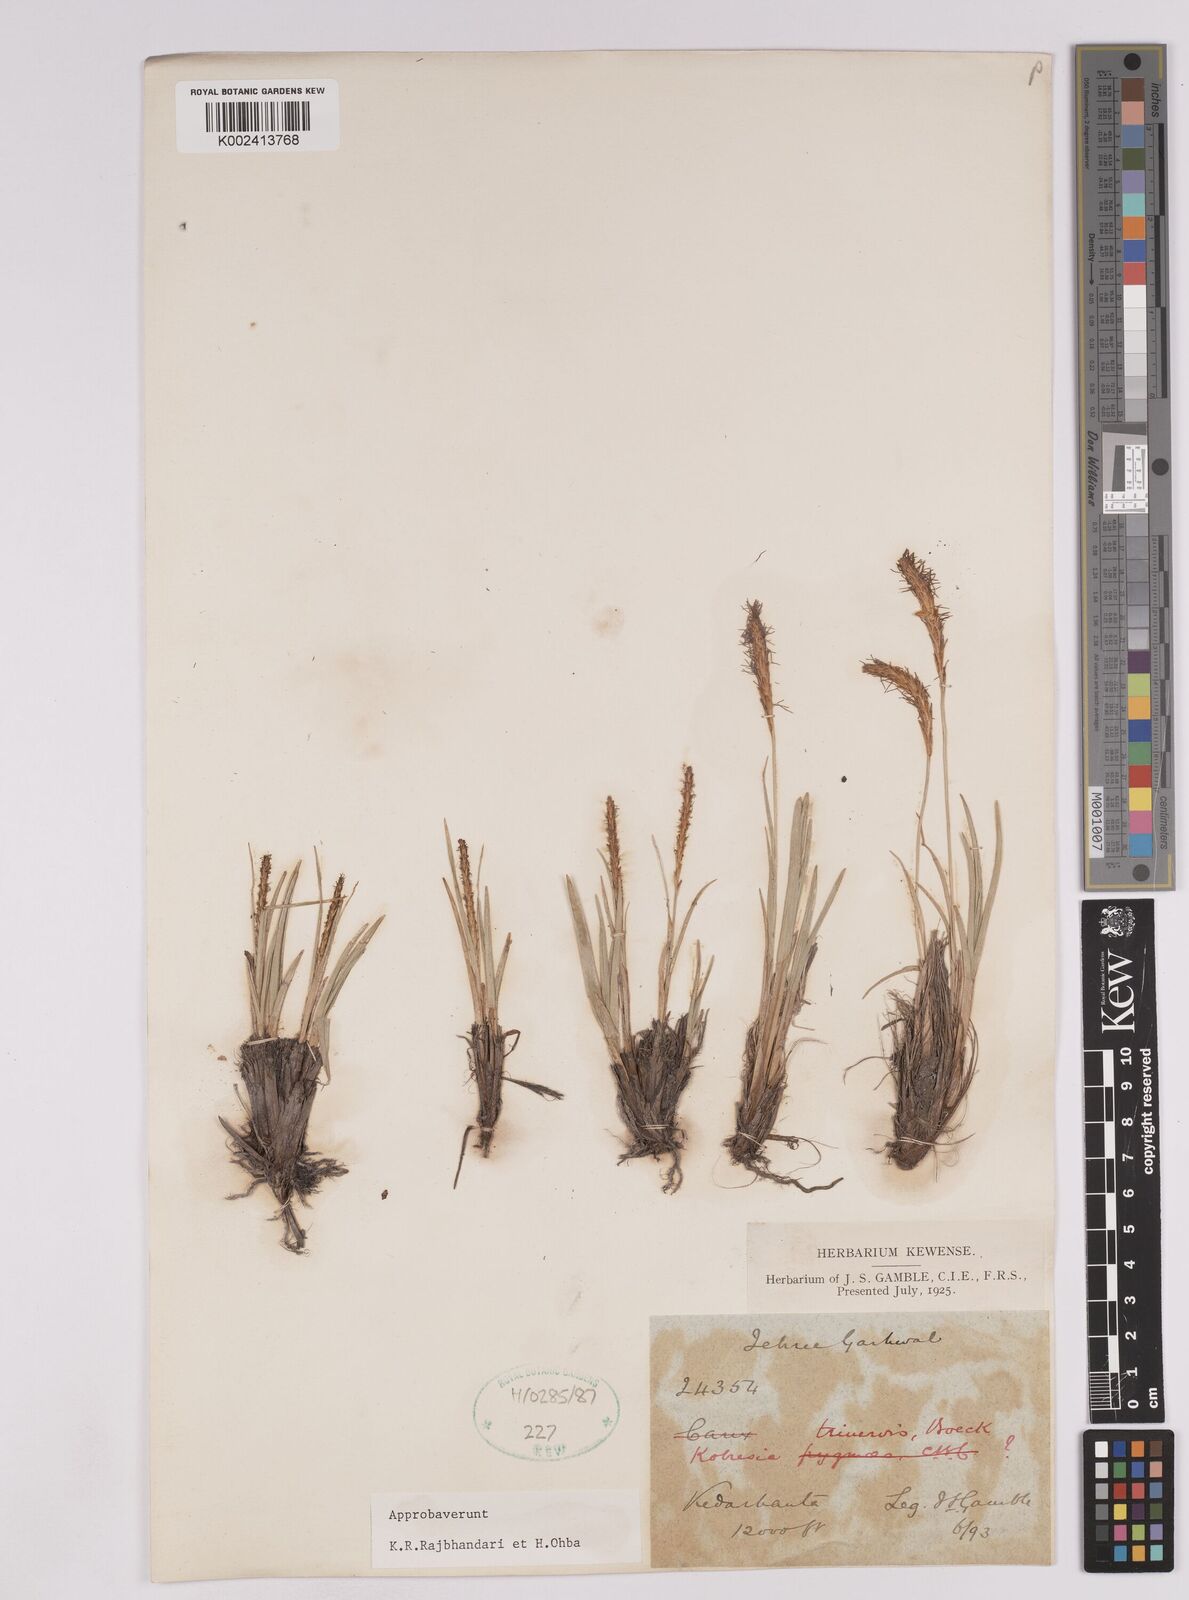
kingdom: Plantae
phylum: Tracheophyta
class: Liliopsida
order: Poales
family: Cyperaceae
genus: Carex
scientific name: Carex esenbeckii
